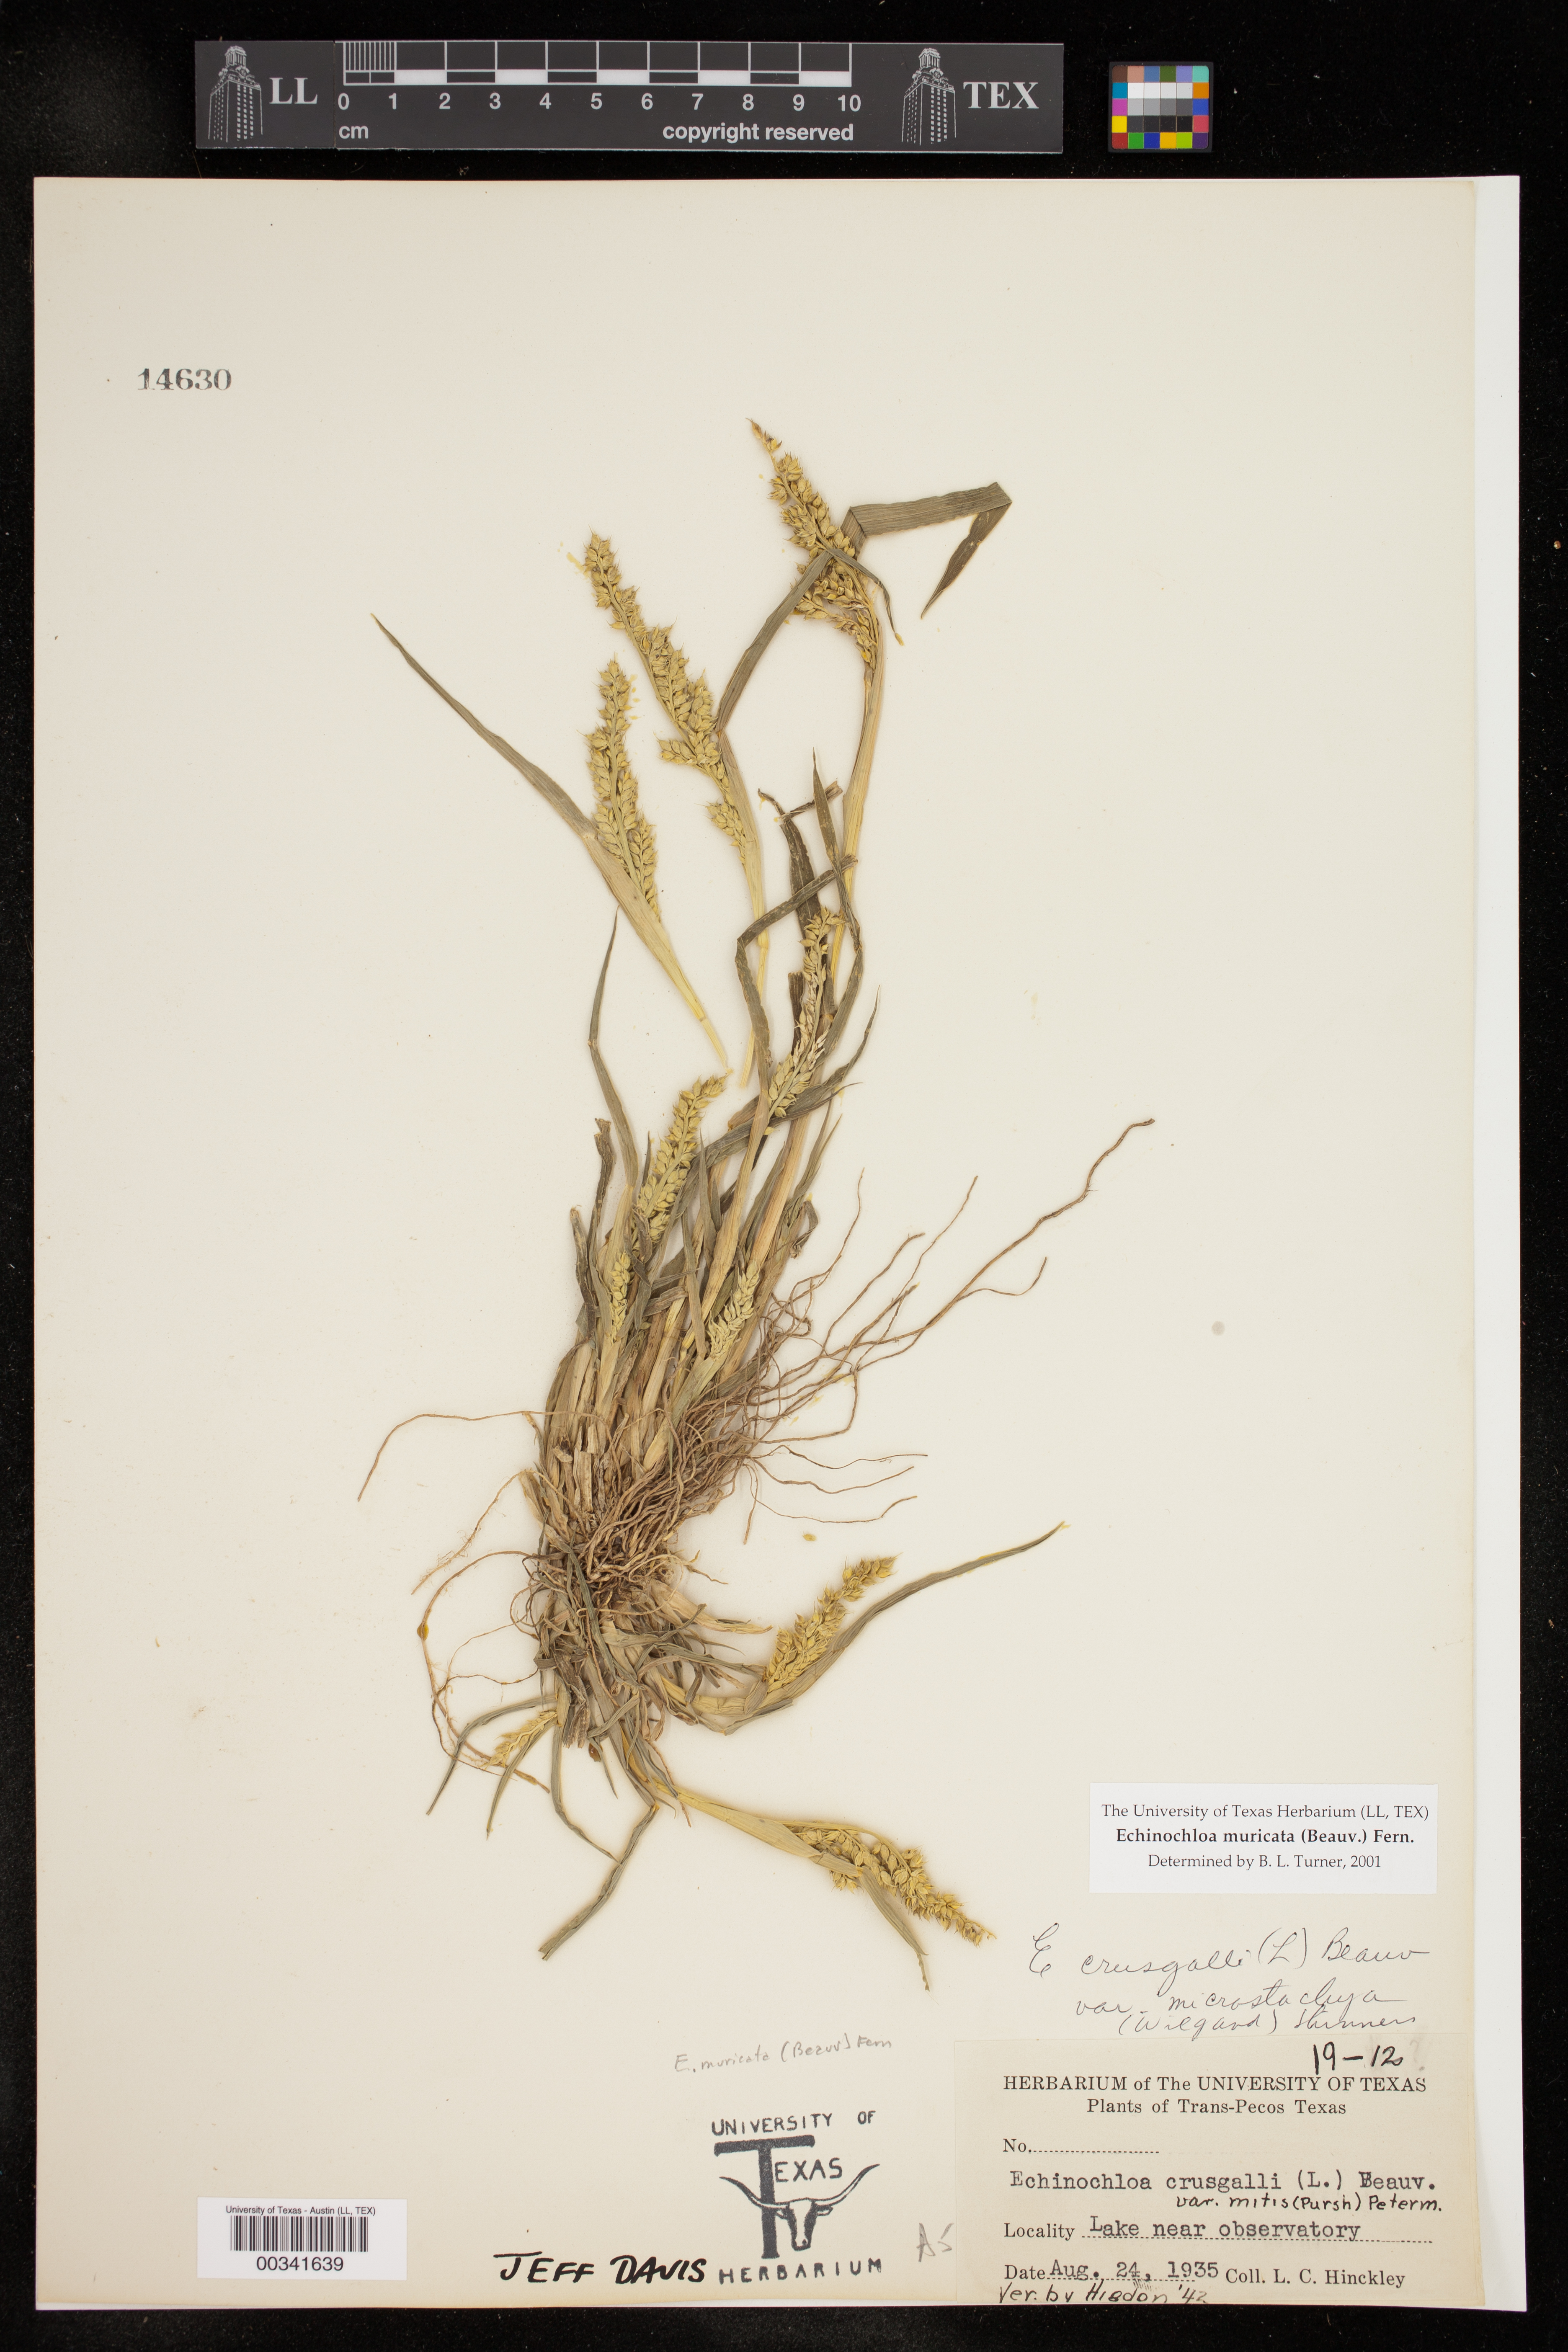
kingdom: Plantae
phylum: Tracheophyta
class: Liliopsida
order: Poales
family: Poaceae
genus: Echinochloa
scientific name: Echinochloa muricata
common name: American barnyard grass
